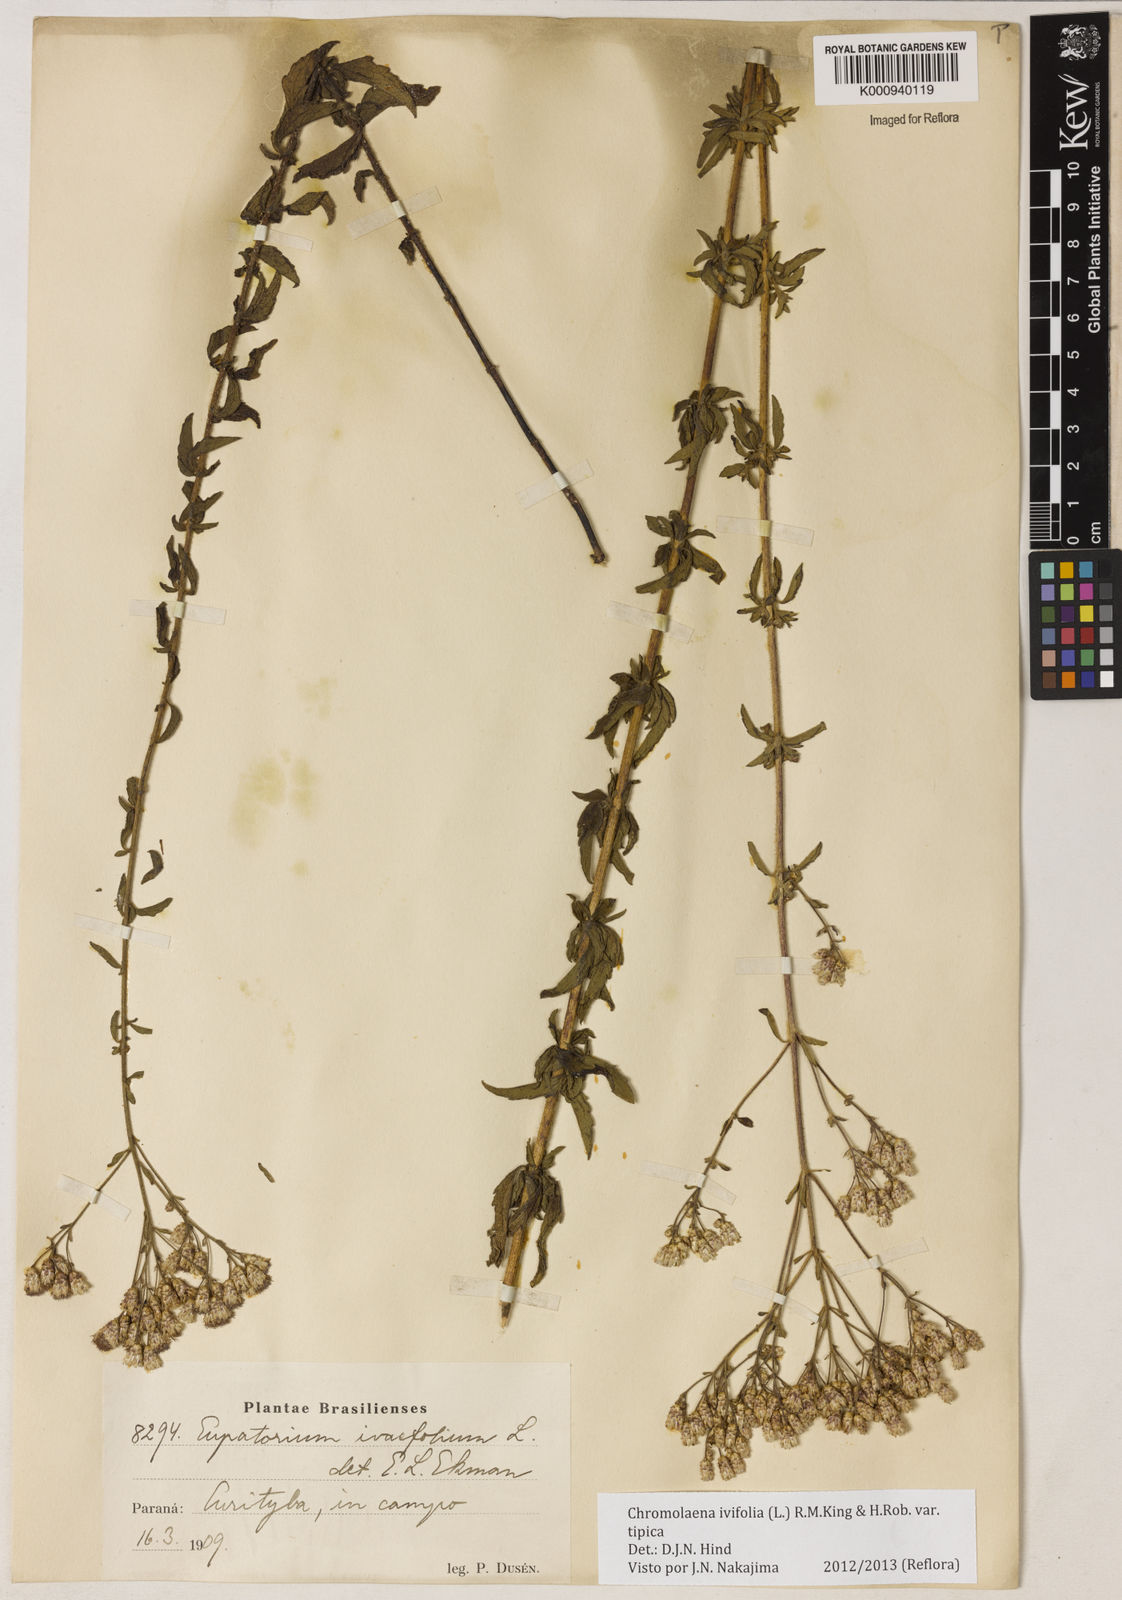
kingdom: Plantae
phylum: Tracheophyta
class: Magnoliopsida
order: Asterales
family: Asteraceae
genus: Chromolaena
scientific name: Chromolaena ivifolia
